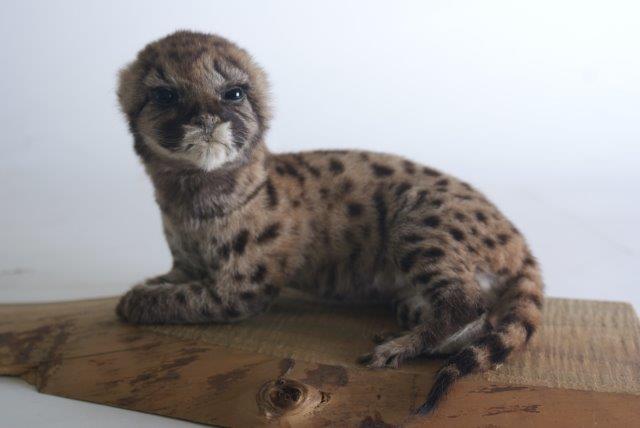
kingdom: Animalia
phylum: Chordata
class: Mammalia
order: Carnivora
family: Felidae
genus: Puma
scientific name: Puma concolor
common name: Cougar
